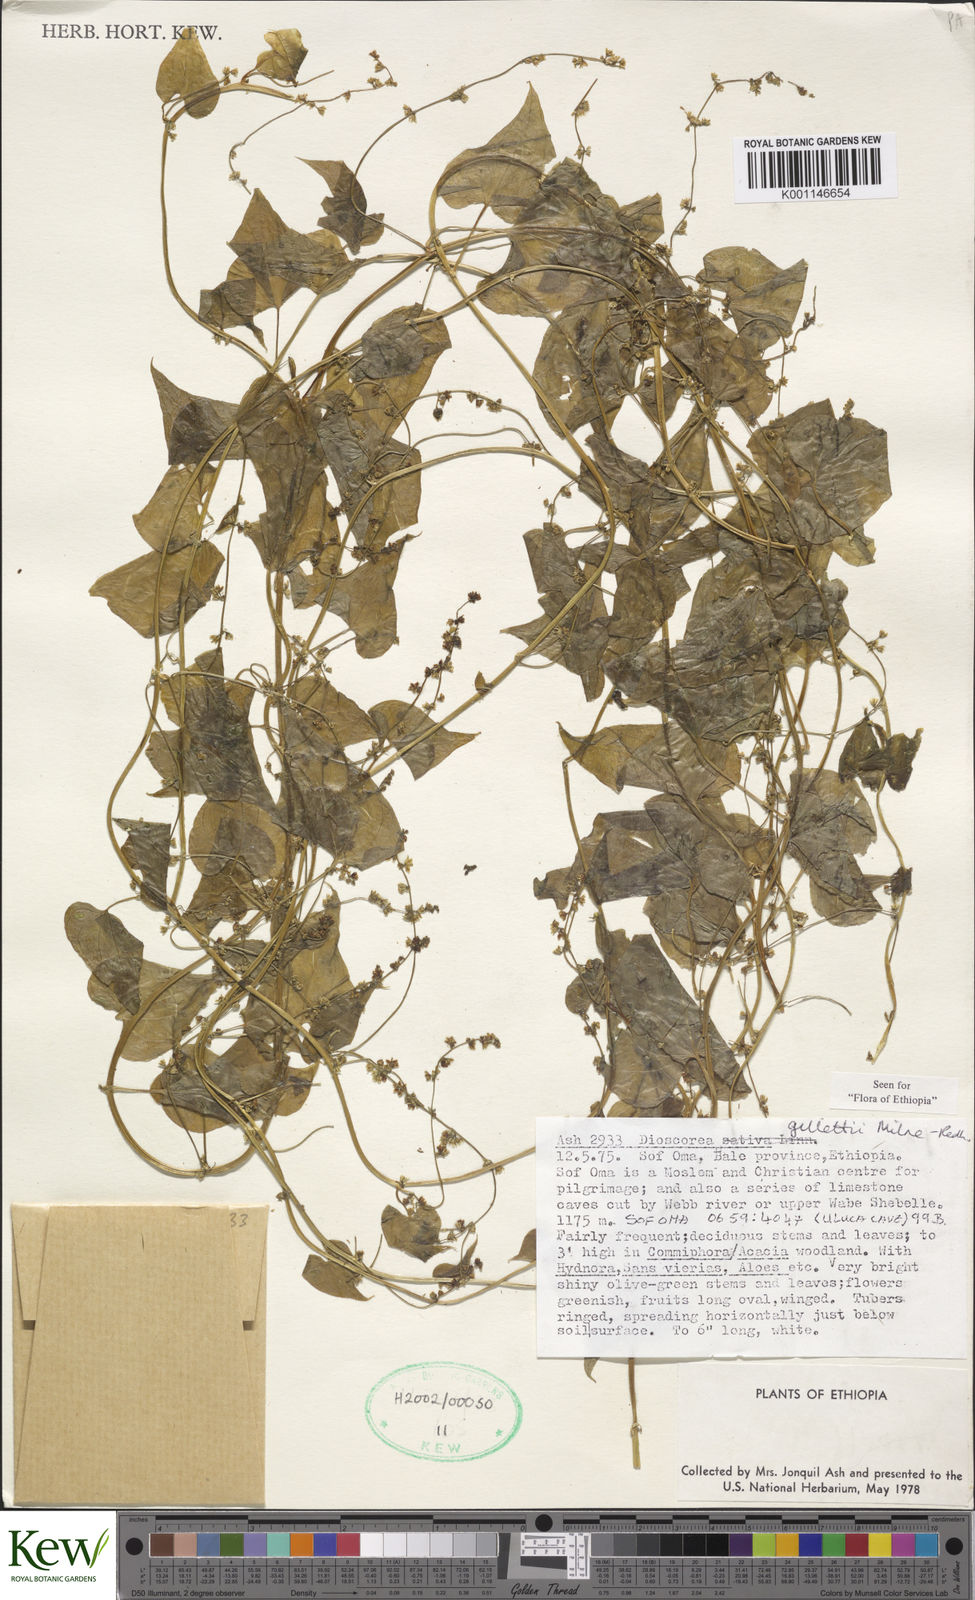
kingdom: Plantae
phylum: Tracheophyta
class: Liliopsida
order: Dioscoreales
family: Dioscoreaceae
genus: Dioscorea
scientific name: Dioscorea gillettii
